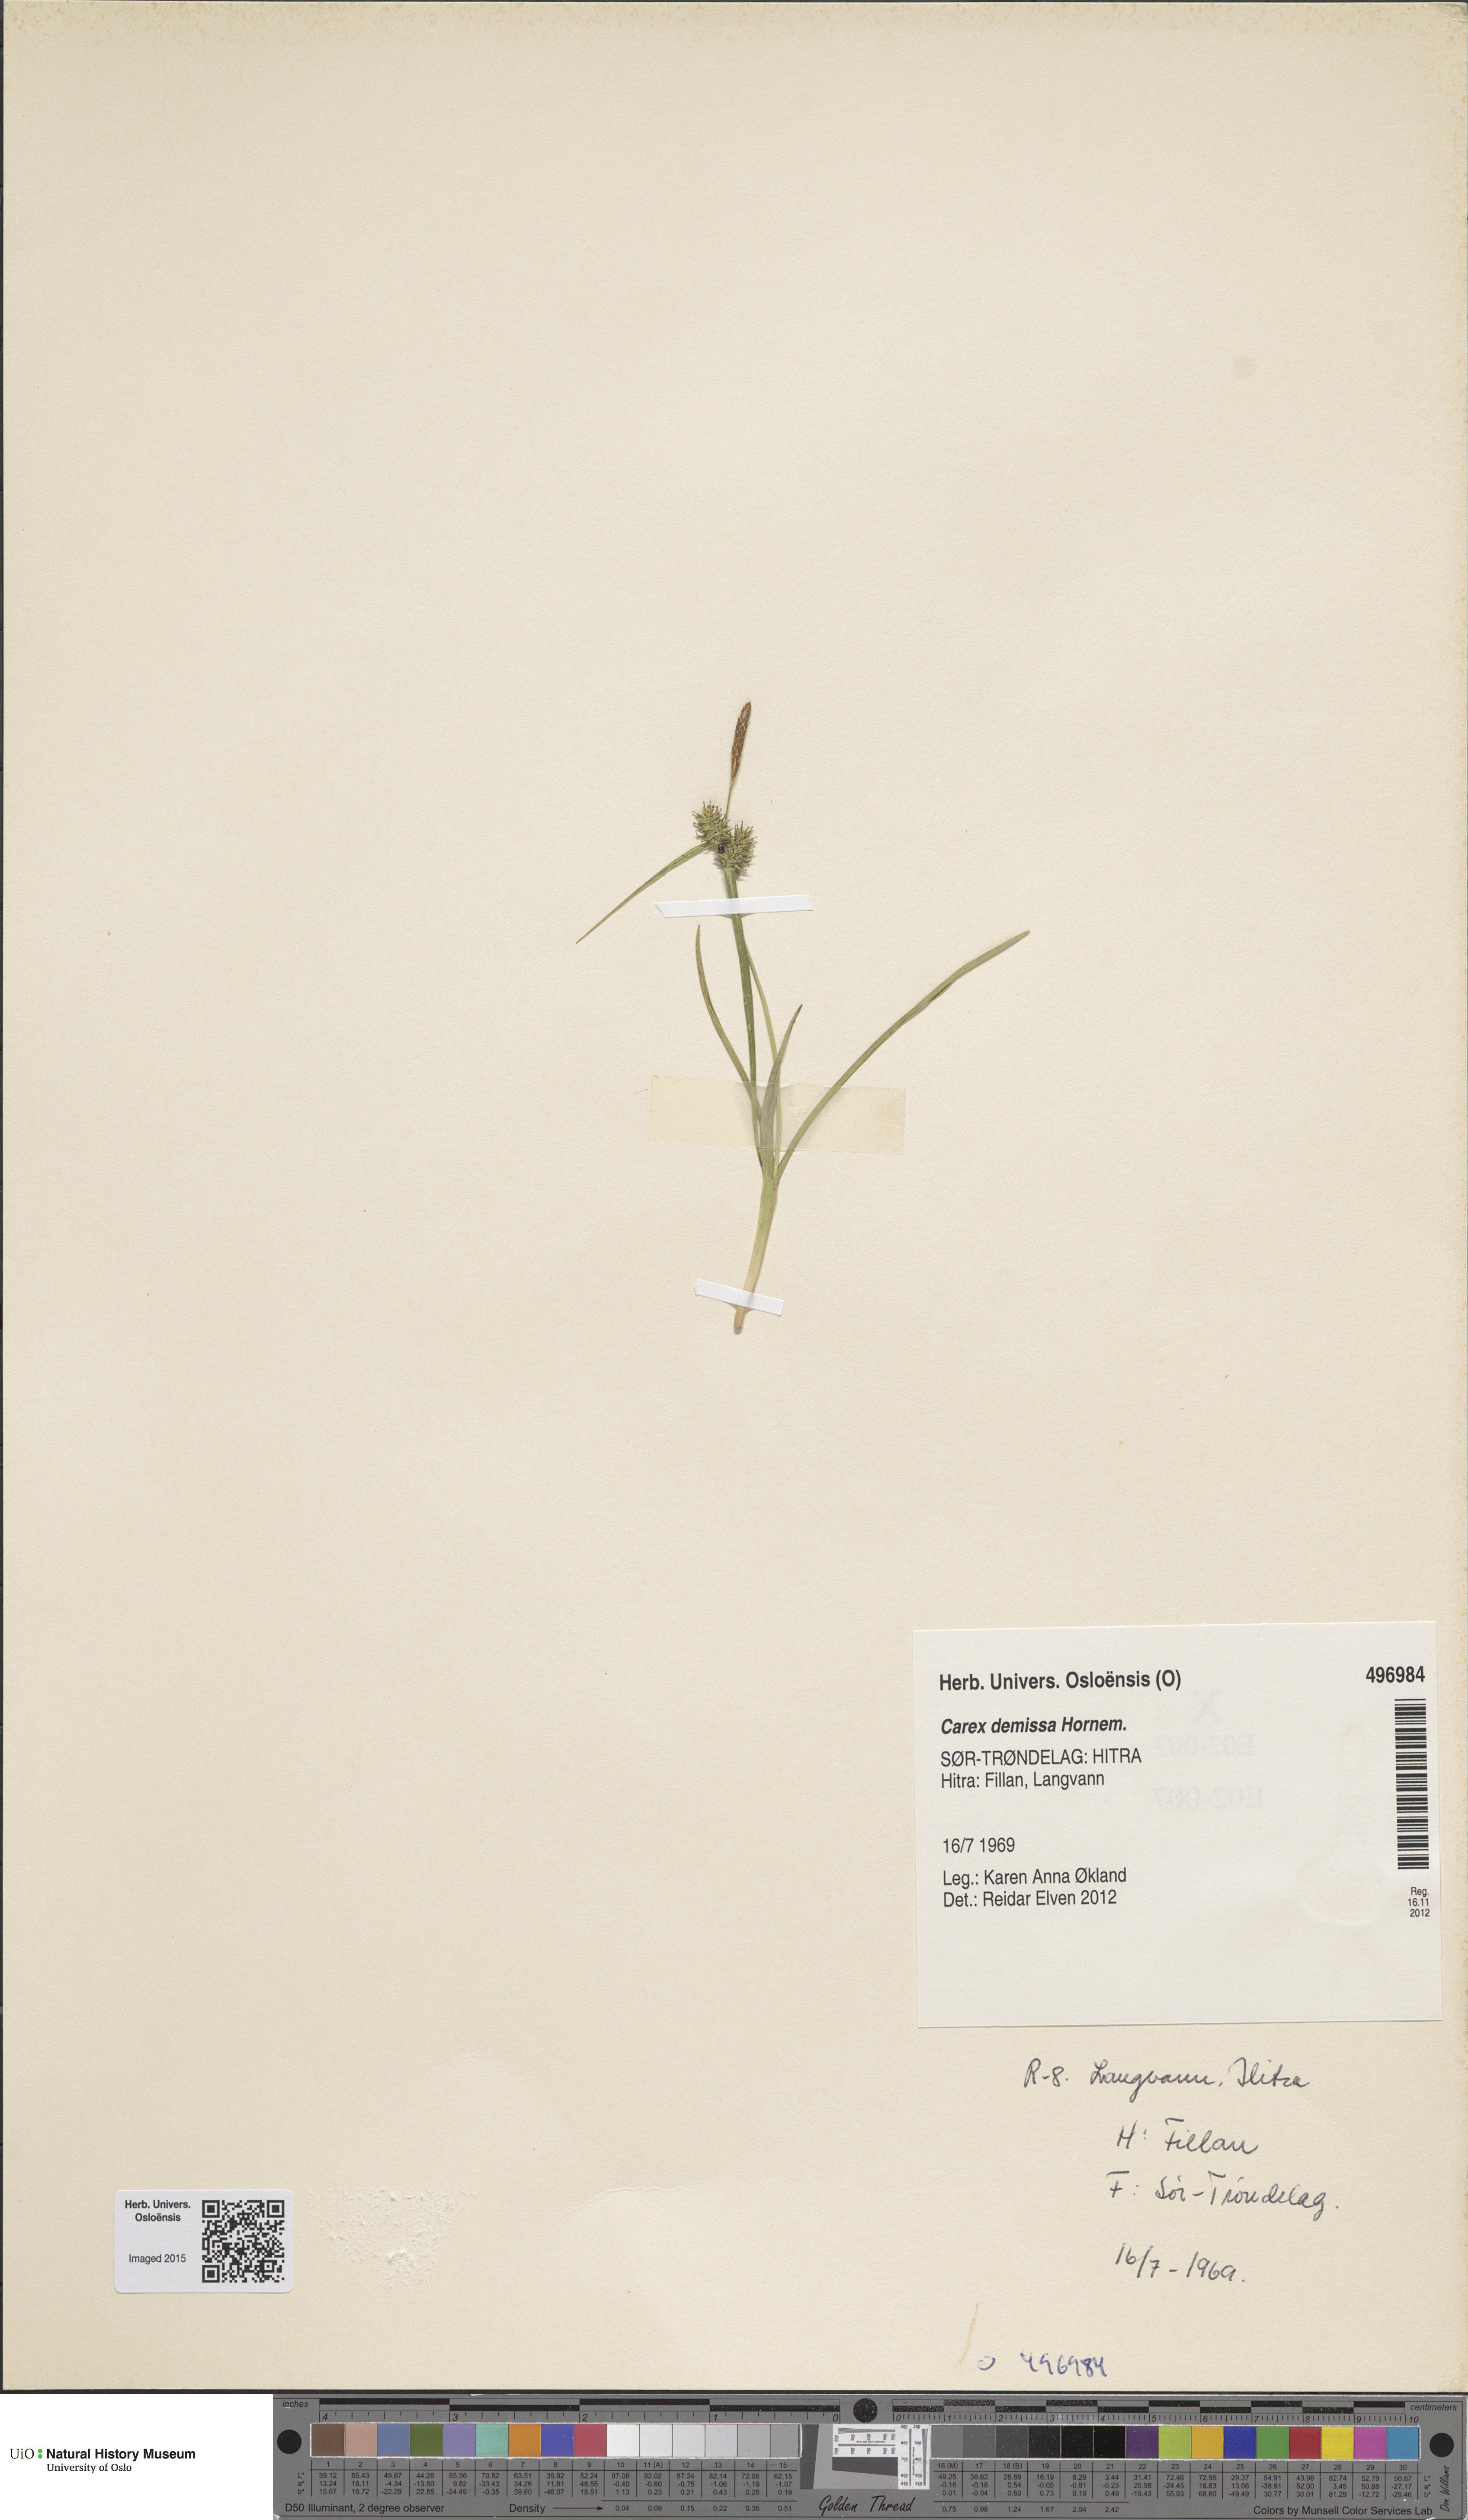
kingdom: Plantae
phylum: Tracheophyta
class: Liliopsida
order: Poales
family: Cyperaceae
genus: Carex
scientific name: Carex demissa
